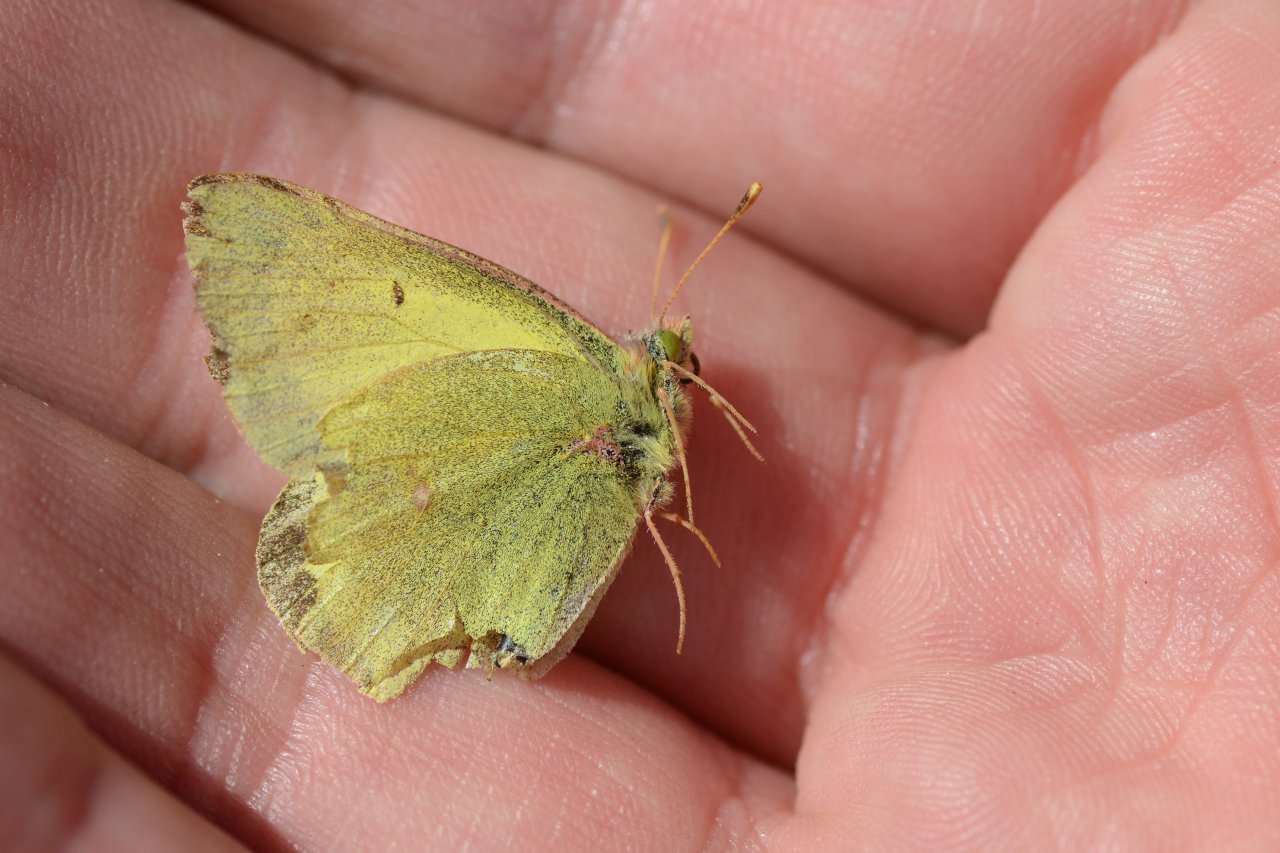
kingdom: Animalia
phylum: Arthropoda
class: Insecta
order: Lepidoptera
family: Pieridae
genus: Colias
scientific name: Colias palaeno
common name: Chippewa Sulphur
